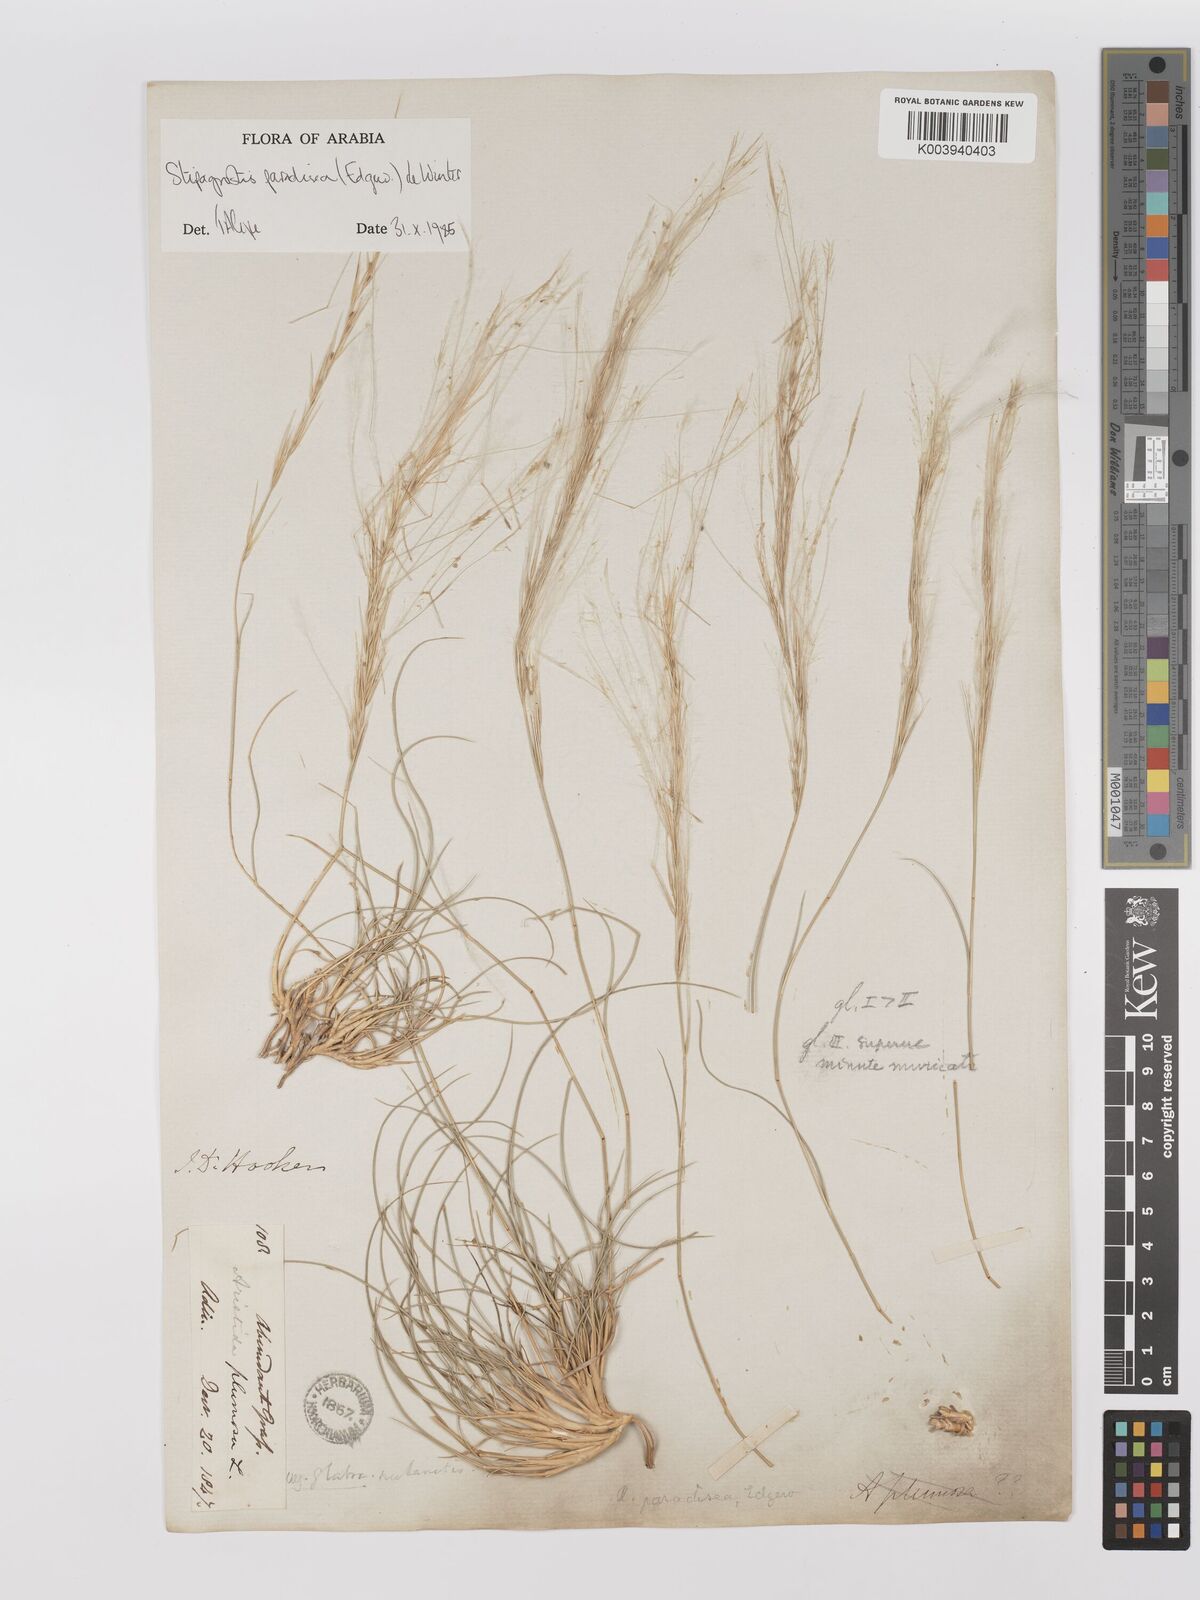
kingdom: Plantae
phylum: Tracheophyta
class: Liliopsida
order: Poales
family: Poaceae
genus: Stipagrostis
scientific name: Stipagrostis paradisea
